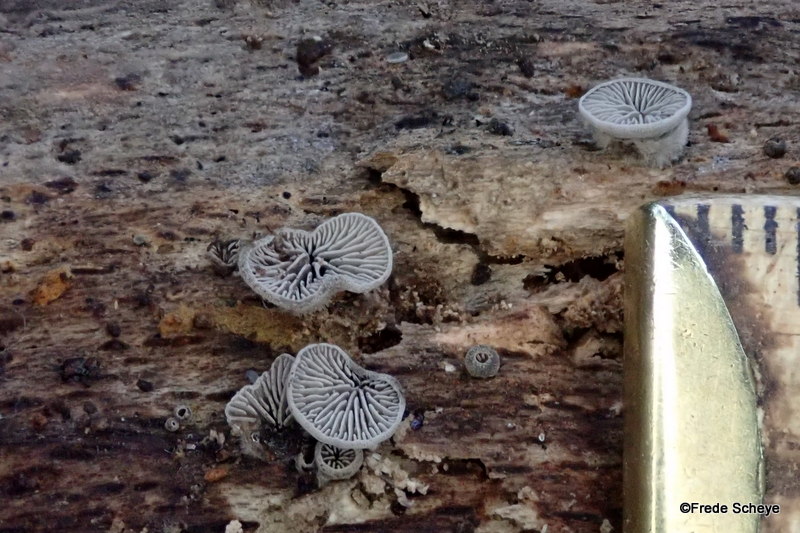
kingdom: Fungi
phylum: Basidiomycota
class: Agaricomycetes
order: Agaricales
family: Pleurotaceae
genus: Resupinatus
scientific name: Resupinatus trichotis
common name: mørkfiltet barkhat
